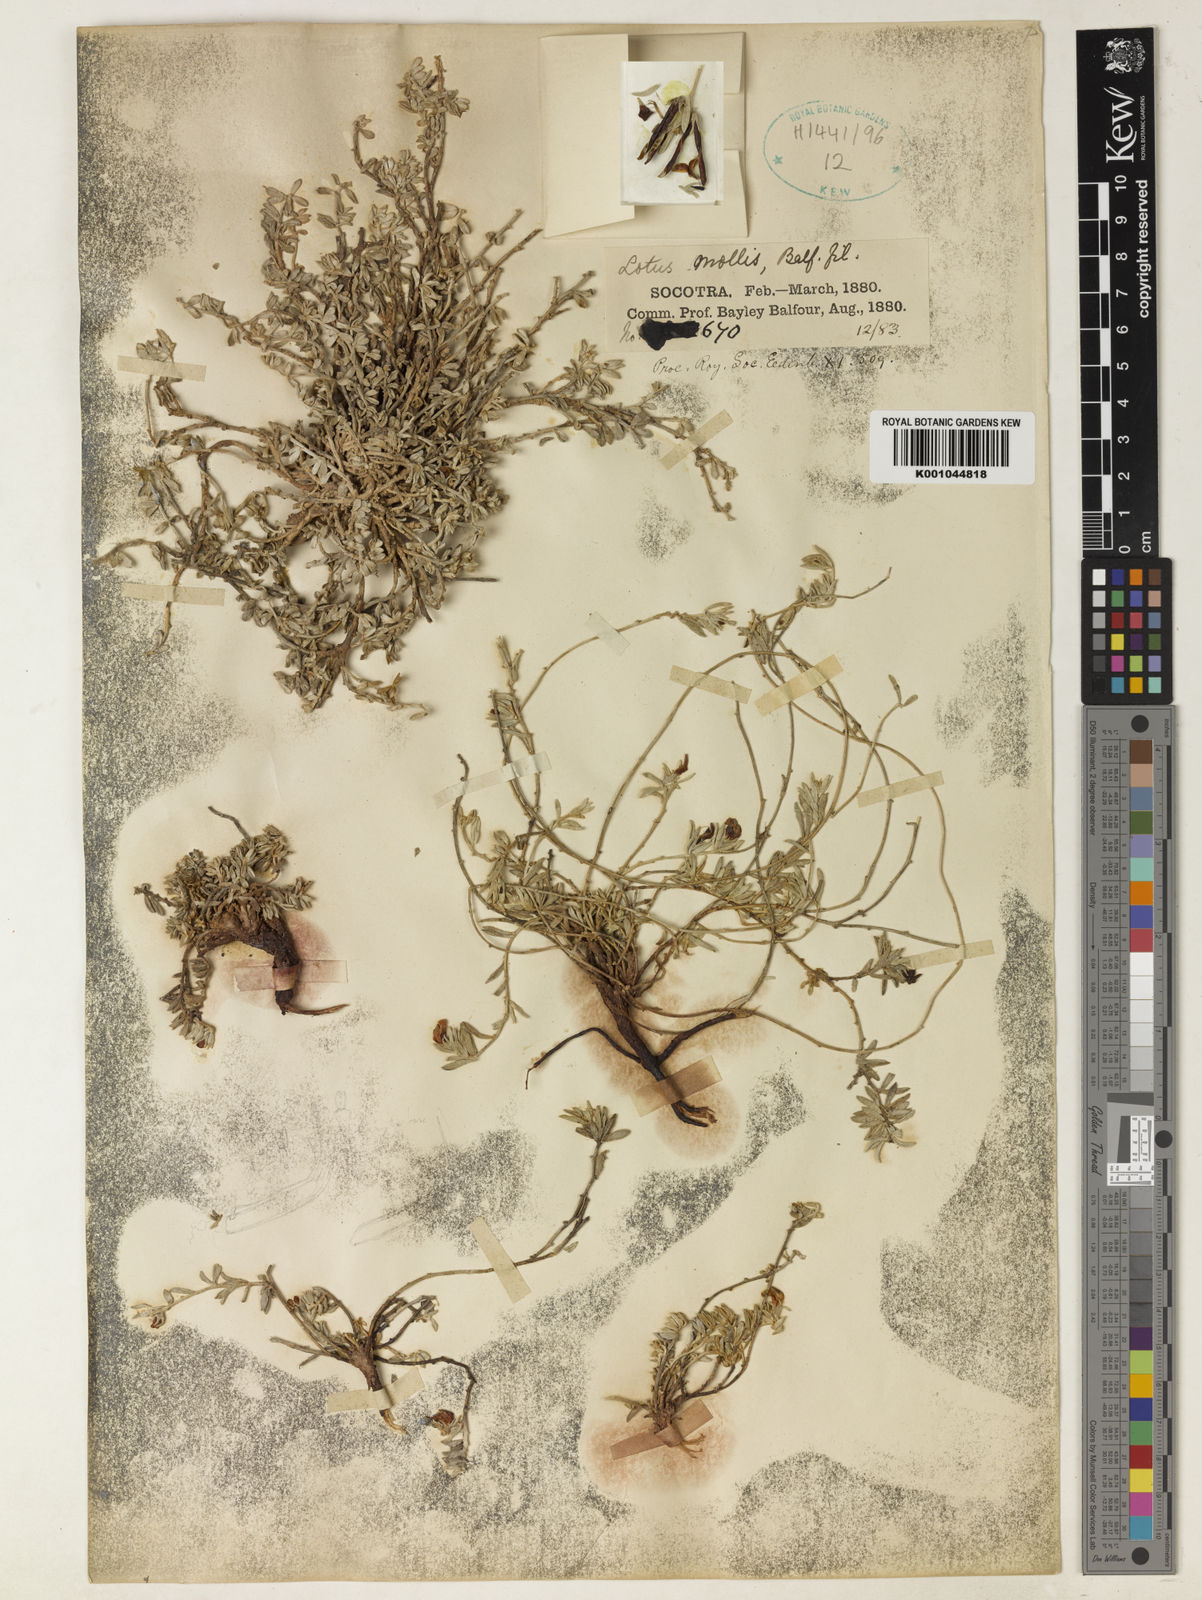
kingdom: Plantae
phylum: Tracheophyta
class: Magnoliopsida
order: Fabales
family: Fabaceae
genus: Lotus
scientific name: Lotus mollis
